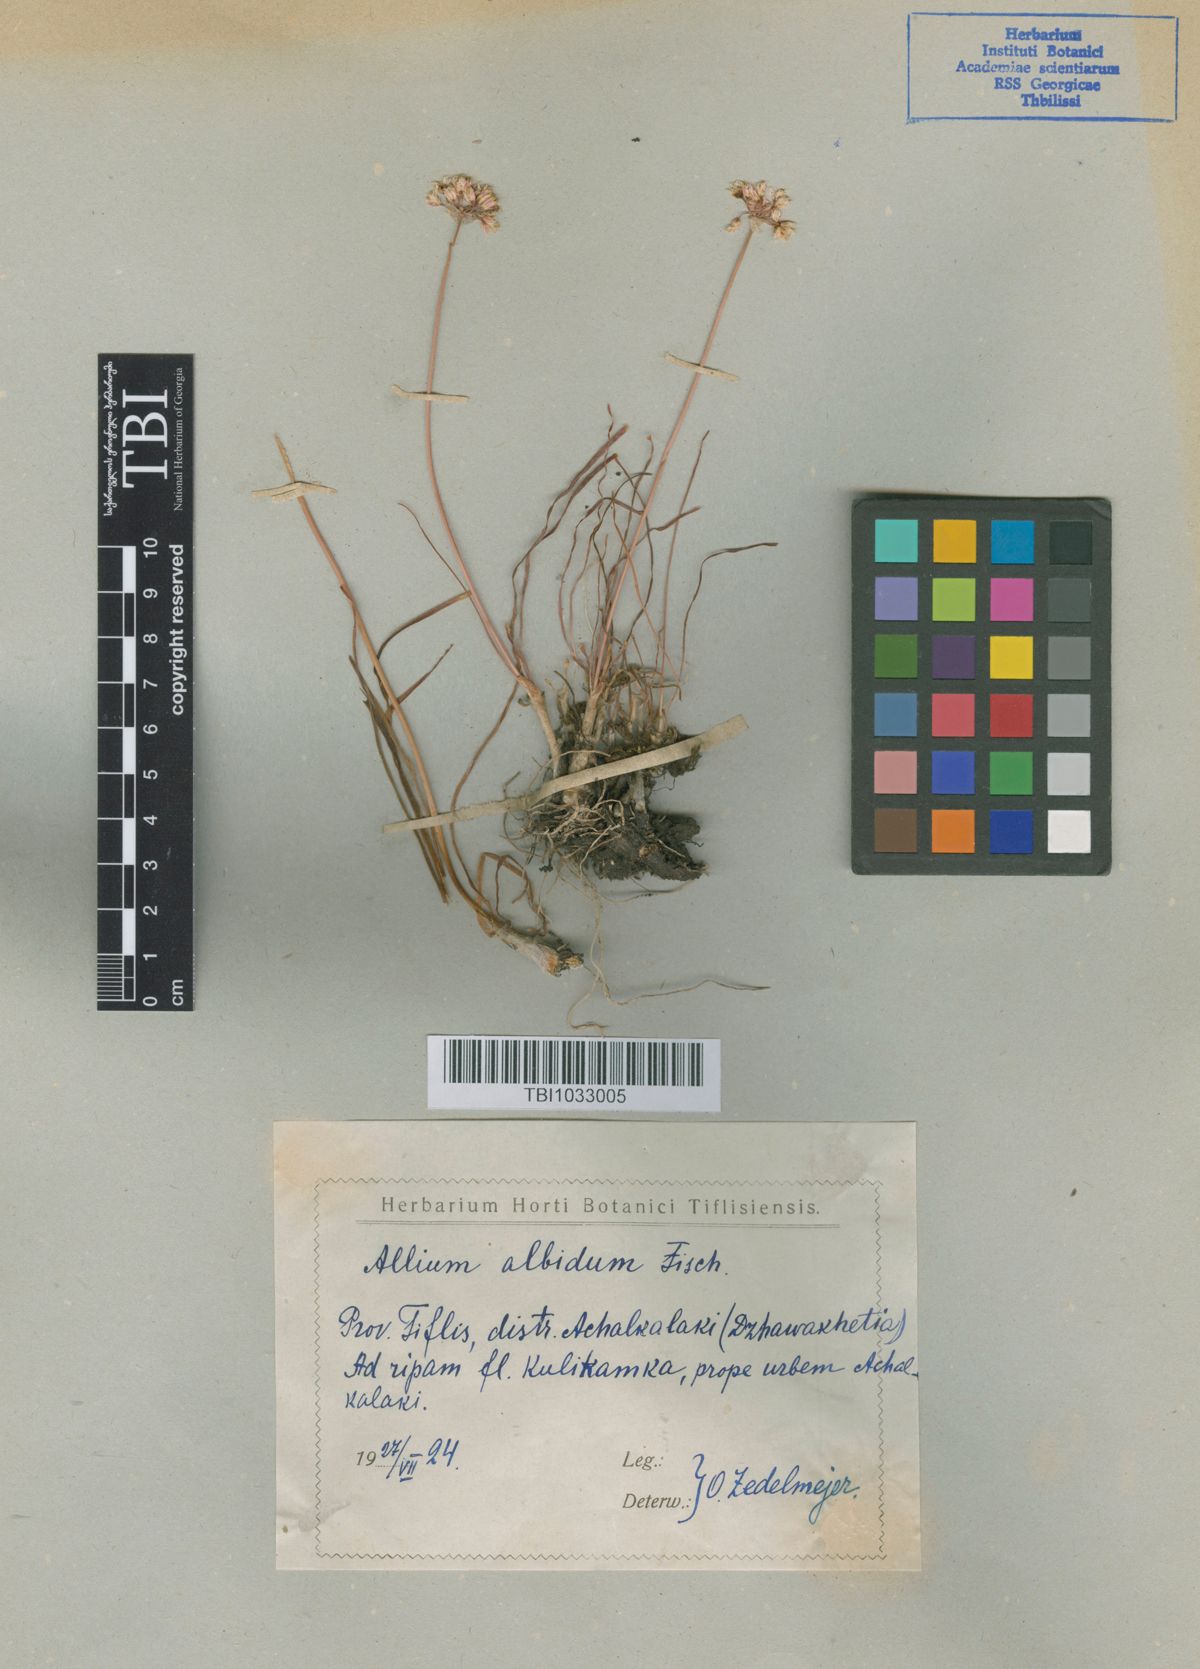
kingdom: Plantae
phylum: Tracheophyta
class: Liliopsida
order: Asparagales
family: Amaryllidaceae
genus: Allium
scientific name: Allium denudatum
